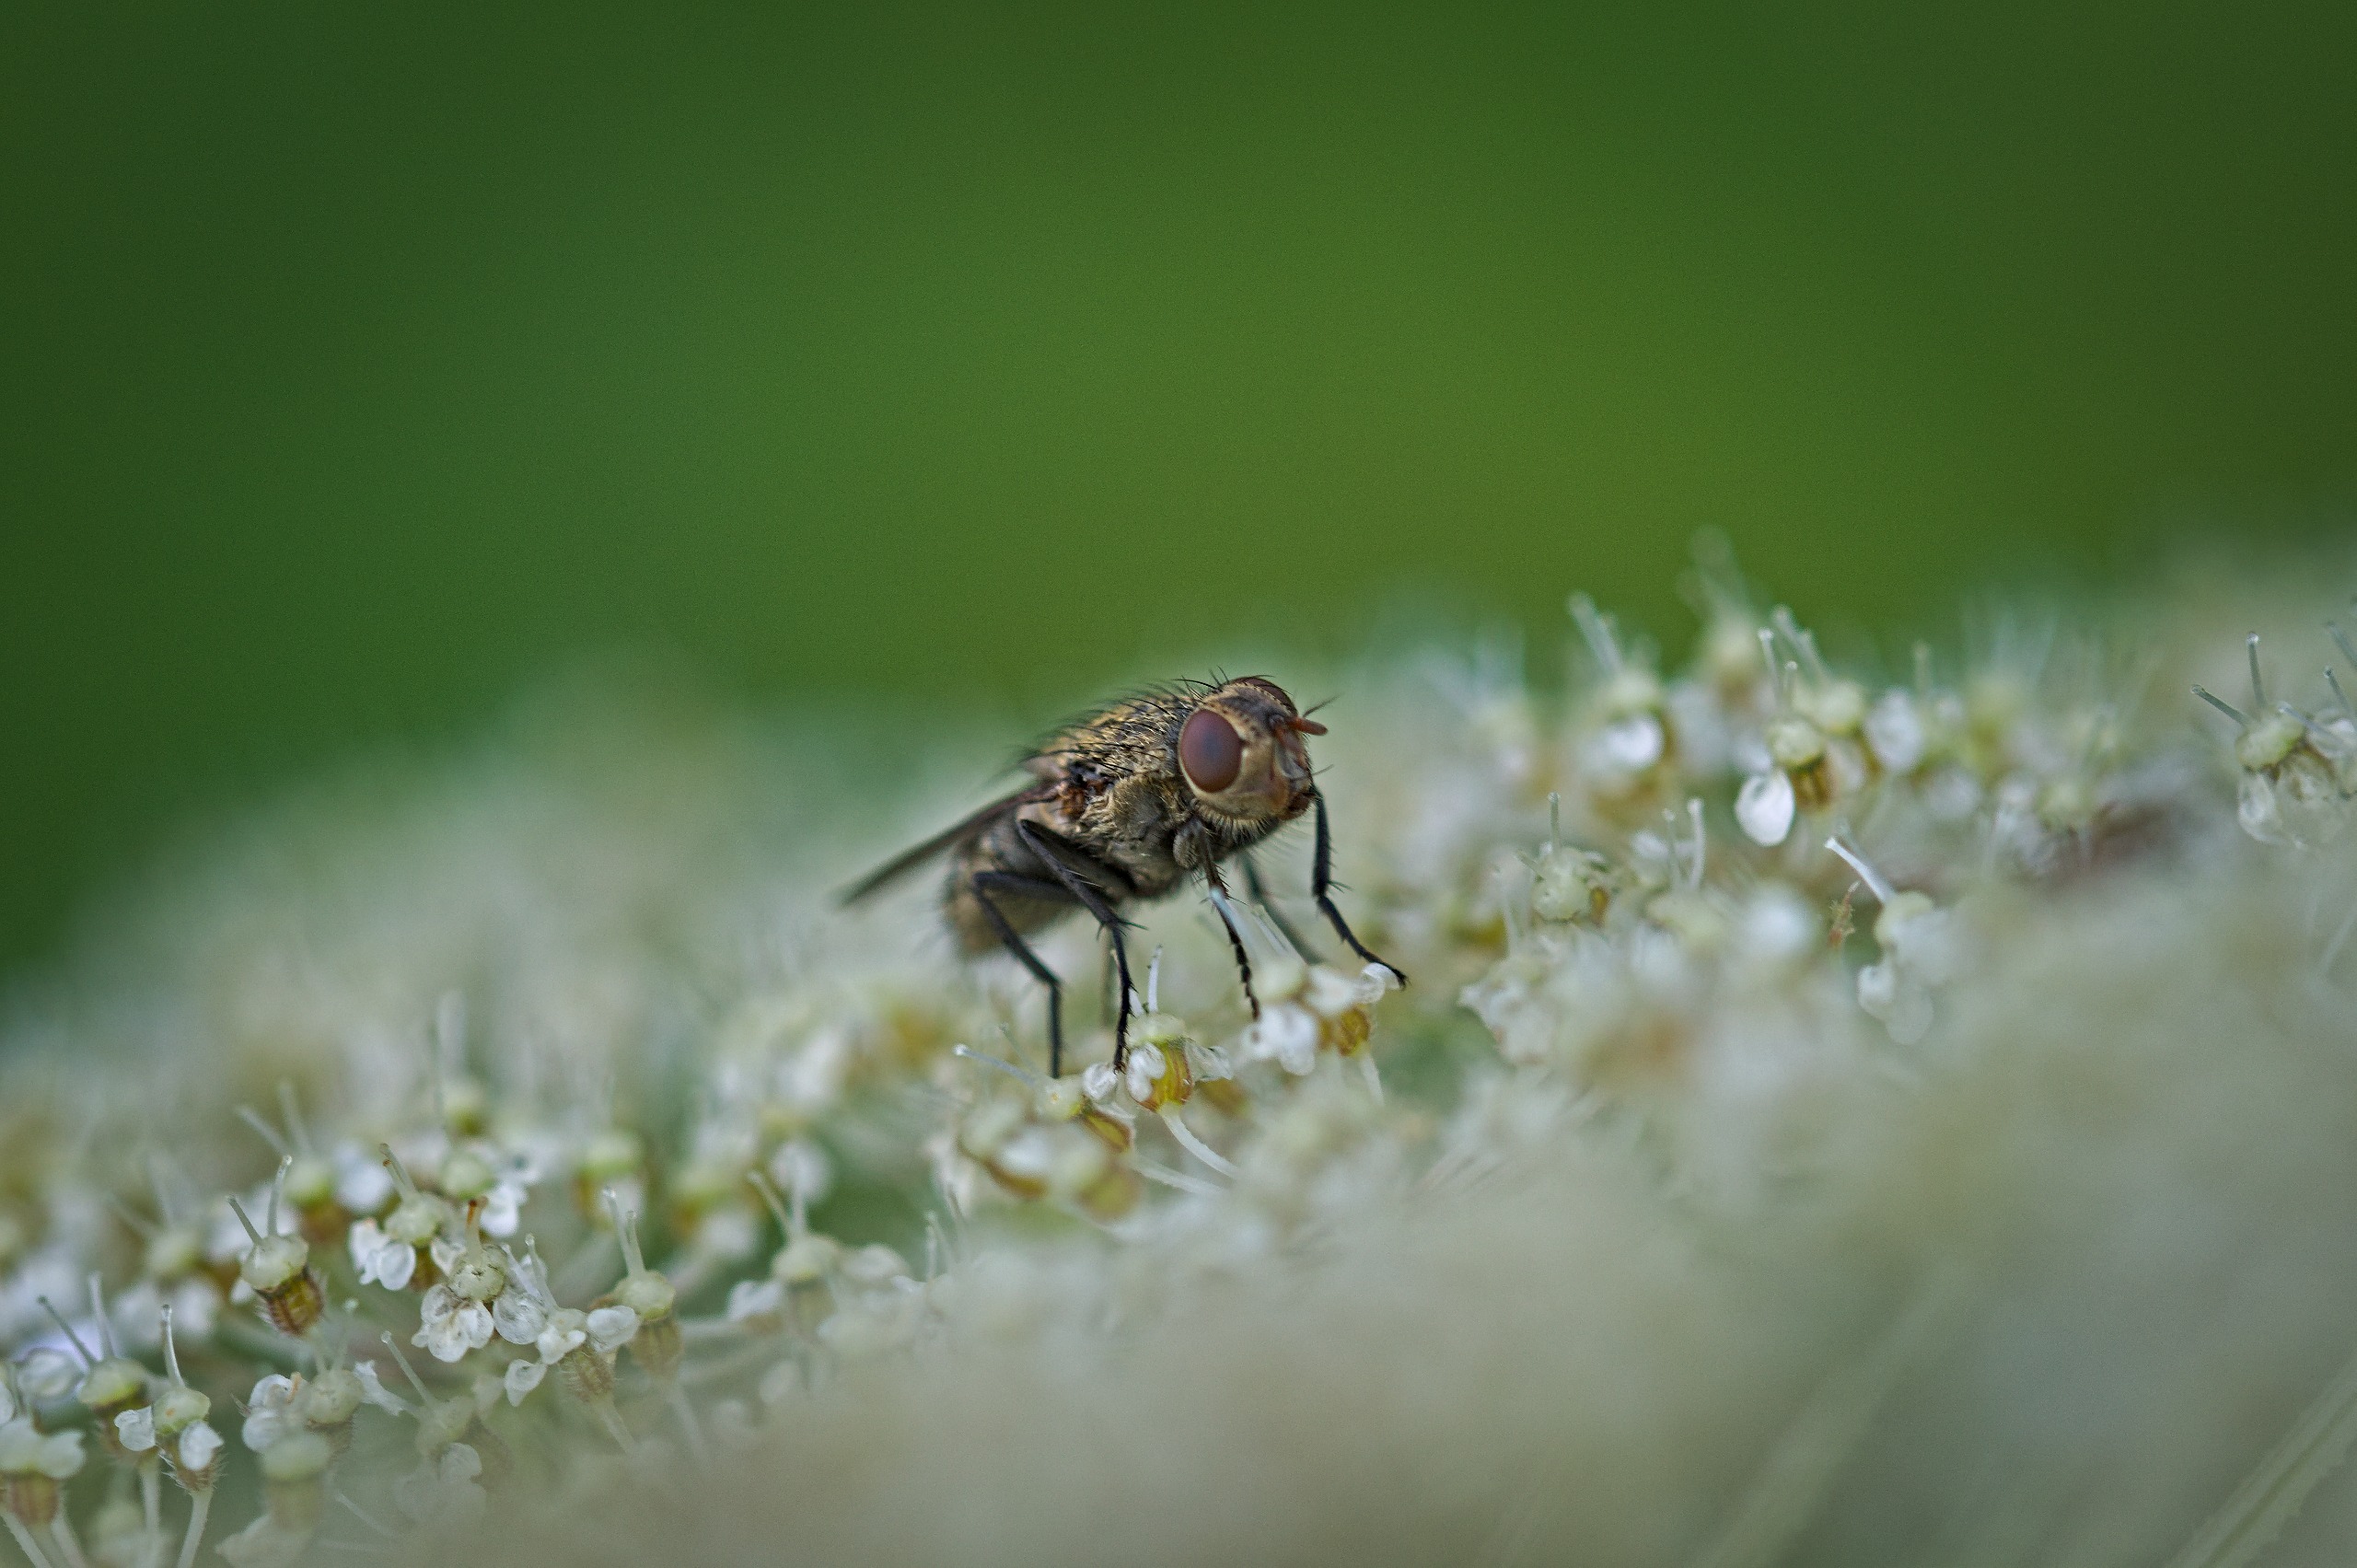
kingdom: Animalia
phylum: Arthropoda
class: Insecta
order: Diptera
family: Polleniidae
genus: Pollenia
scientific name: Pollenia
